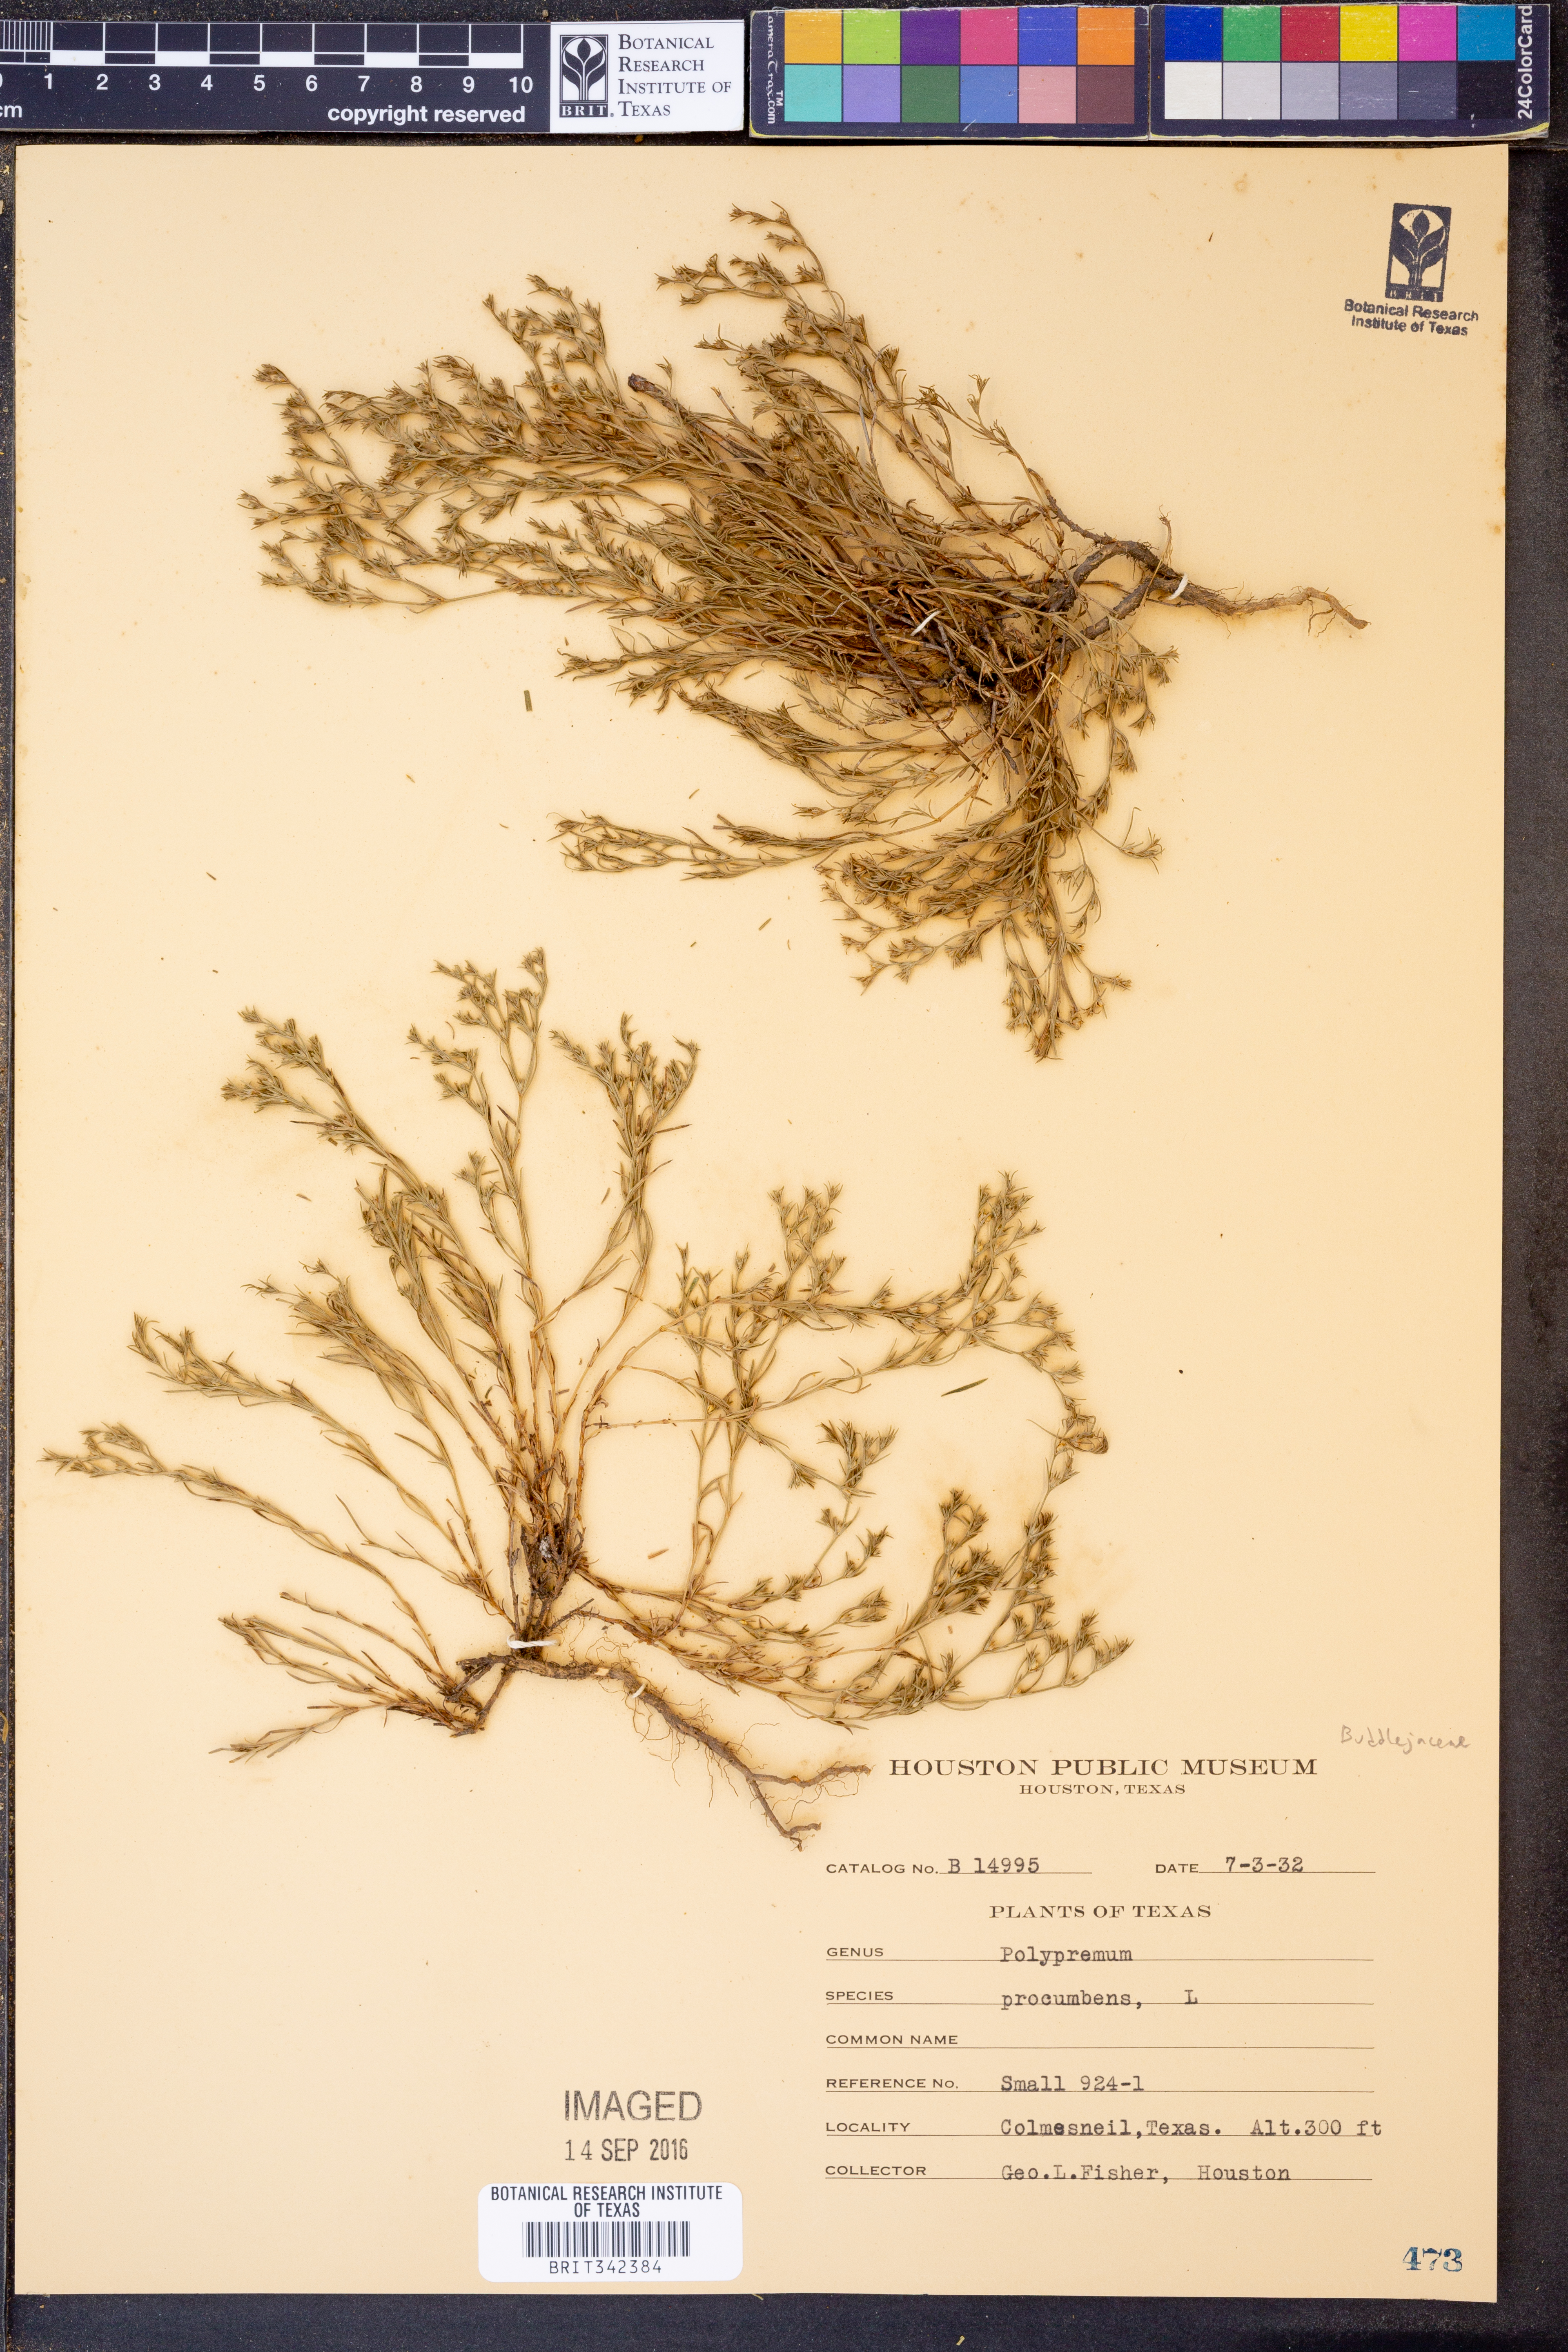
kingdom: Plantae
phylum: Tracheophyta
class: Magnoliopsida
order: Lamiales
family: Tetrachondraceae
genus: Polypremum
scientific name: Polypremum procumbens
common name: Juniper-leaf
